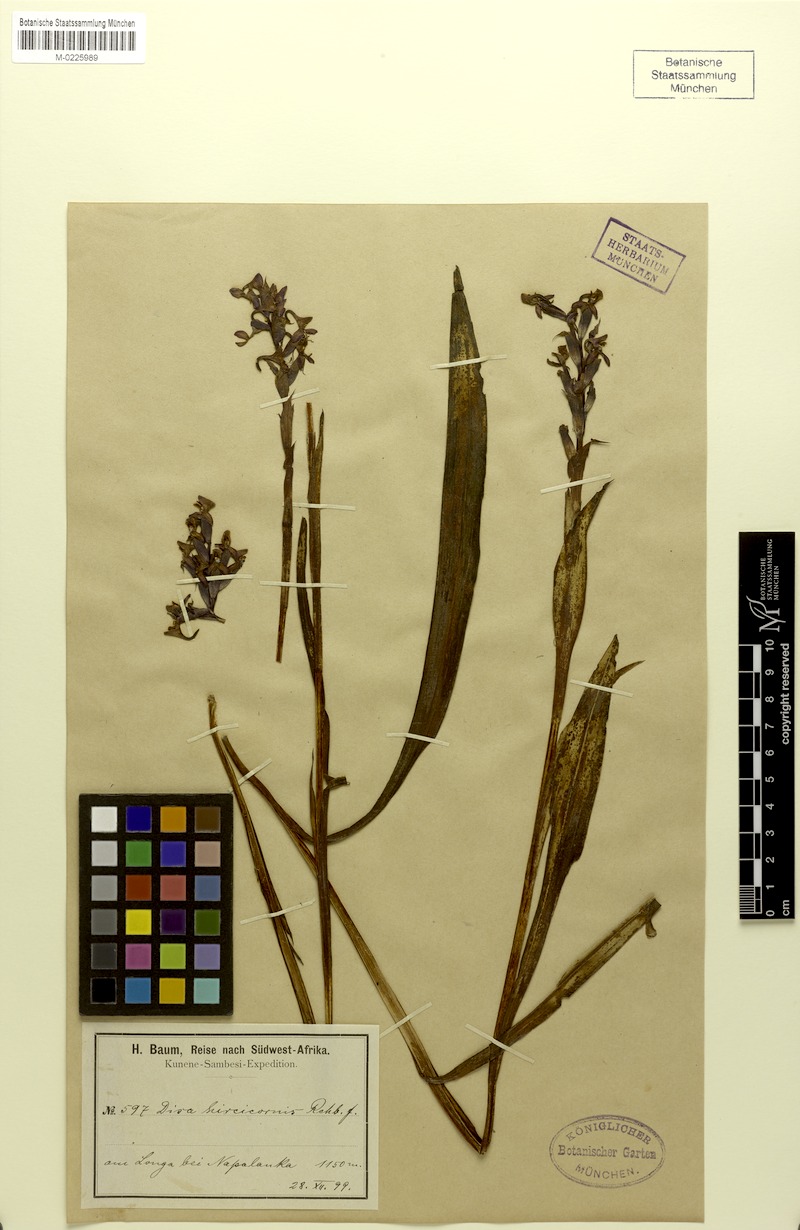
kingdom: Plantae
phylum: Tracheophyta
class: Liliopsida
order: Asparagales
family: Orchidaceae
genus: Disa
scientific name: Disa hircicornis
